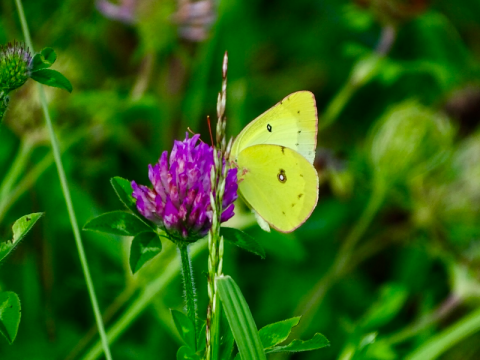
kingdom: Animalia
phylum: Arthropoda
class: Insecta
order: Lepidoptera
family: Pieridae
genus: Colias
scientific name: Colias philodice
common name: Clouded Sulphur
